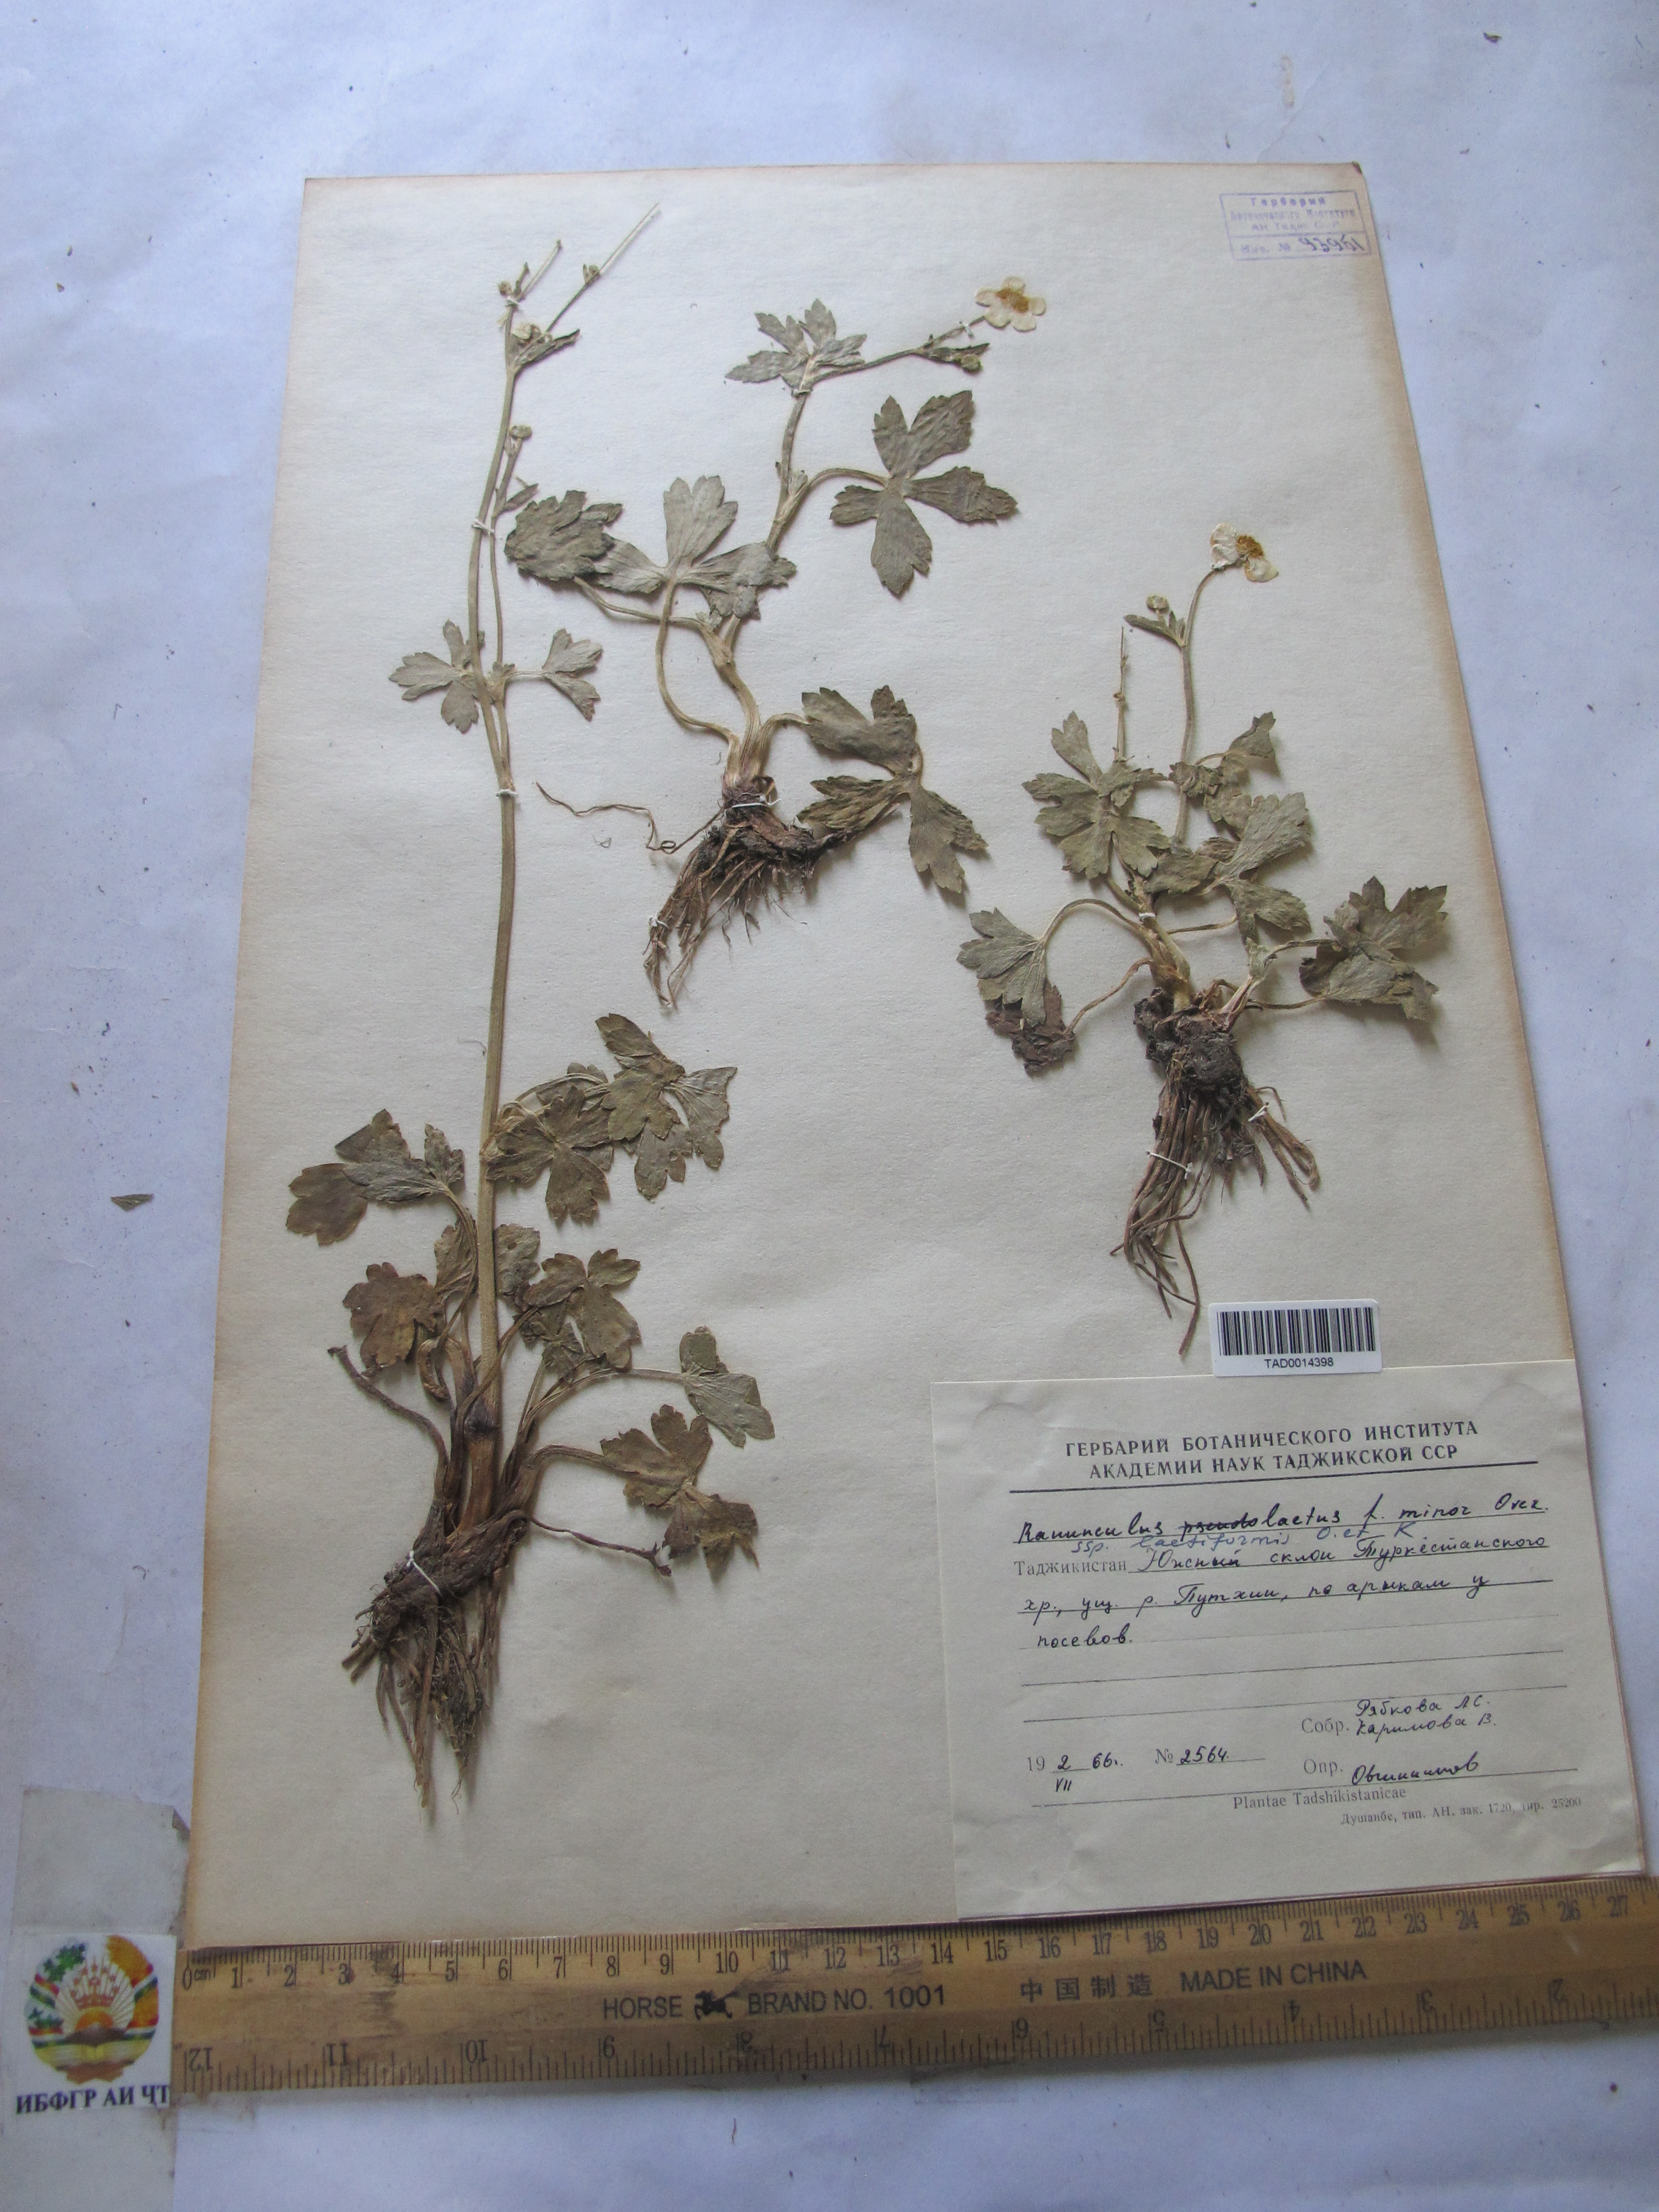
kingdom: Plantae
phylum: Tracheophyta
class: Magnoliopsida
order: Ranunculales
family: Ranunculaceae
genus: Ranunculus
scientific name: Ranunculus distans
